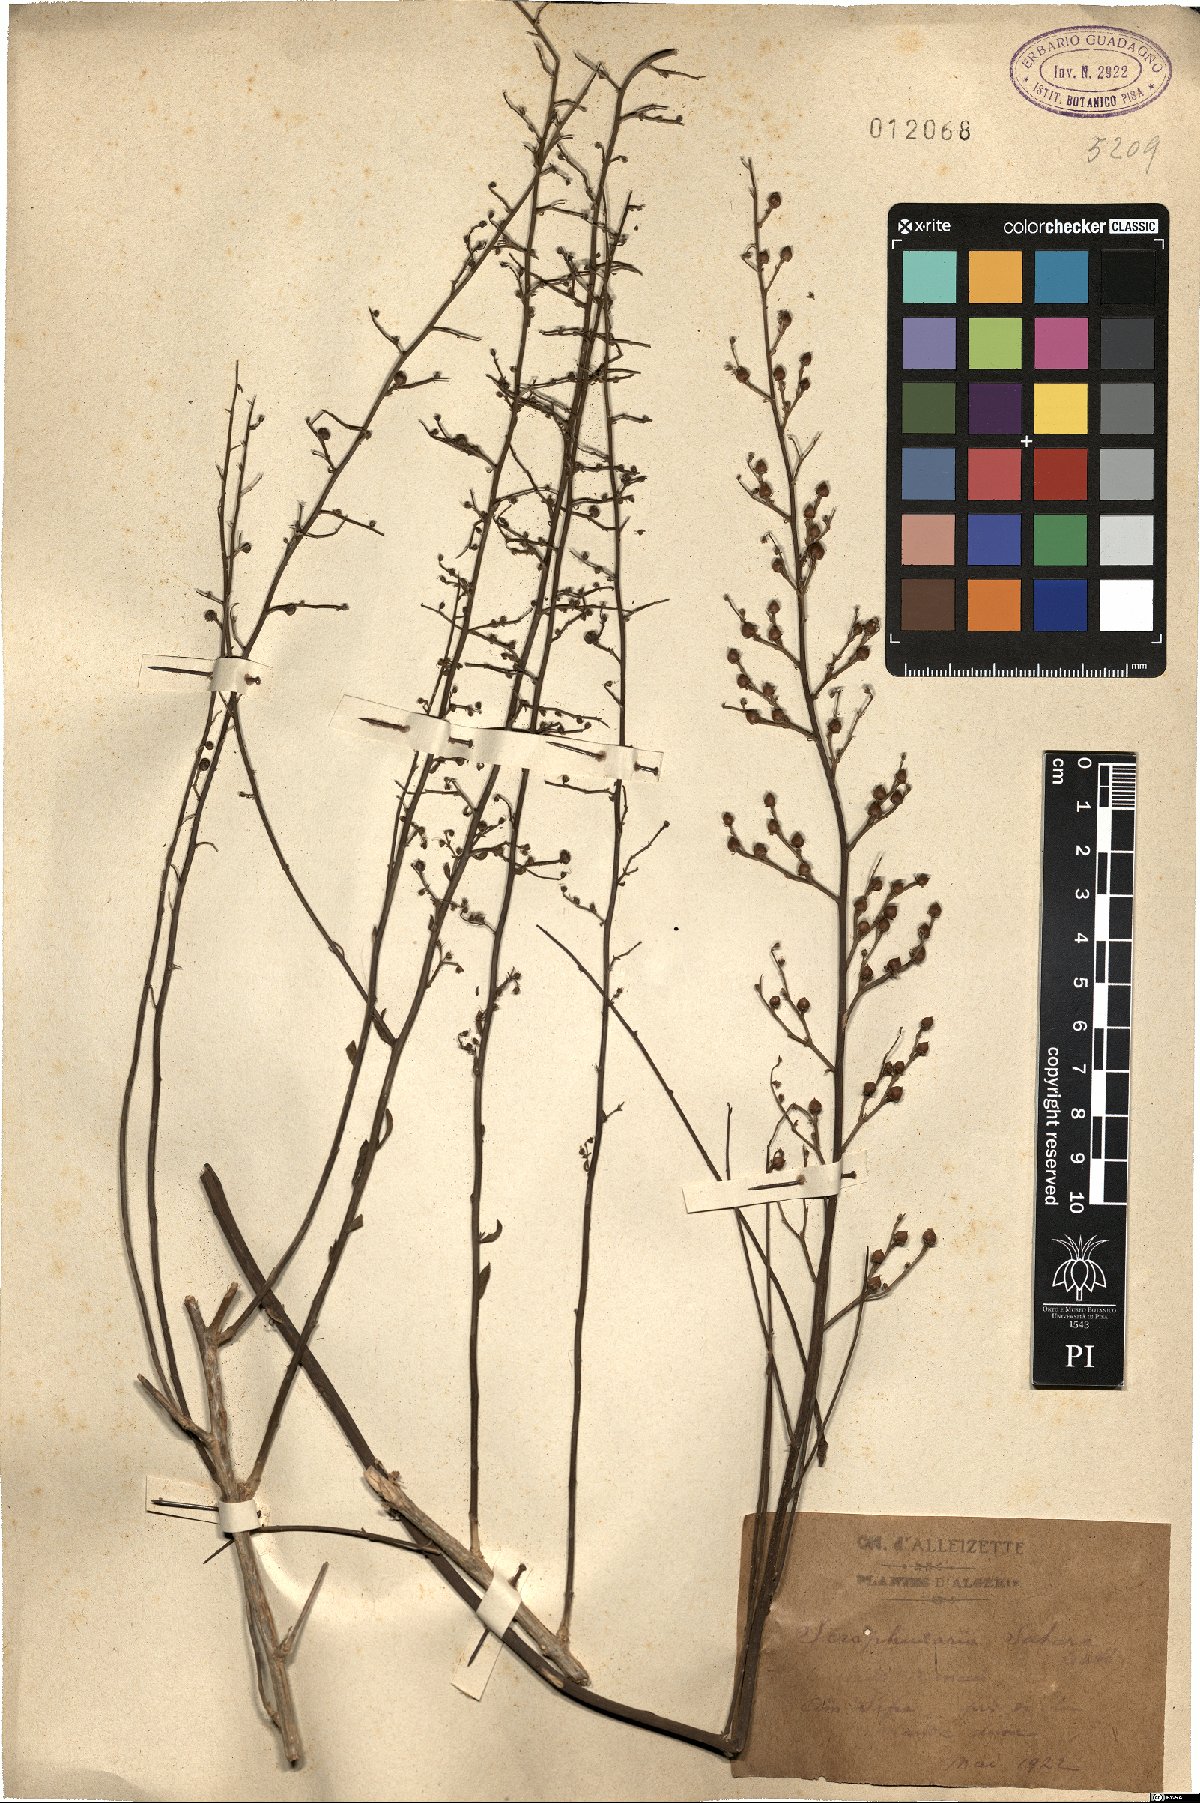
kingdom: Plantae
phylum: Tracheophyta
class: Magnoliopsida
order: Lamiales
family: Scrophulariaceae
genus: Scrophularia
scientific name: Scrophularia hypericifolia
